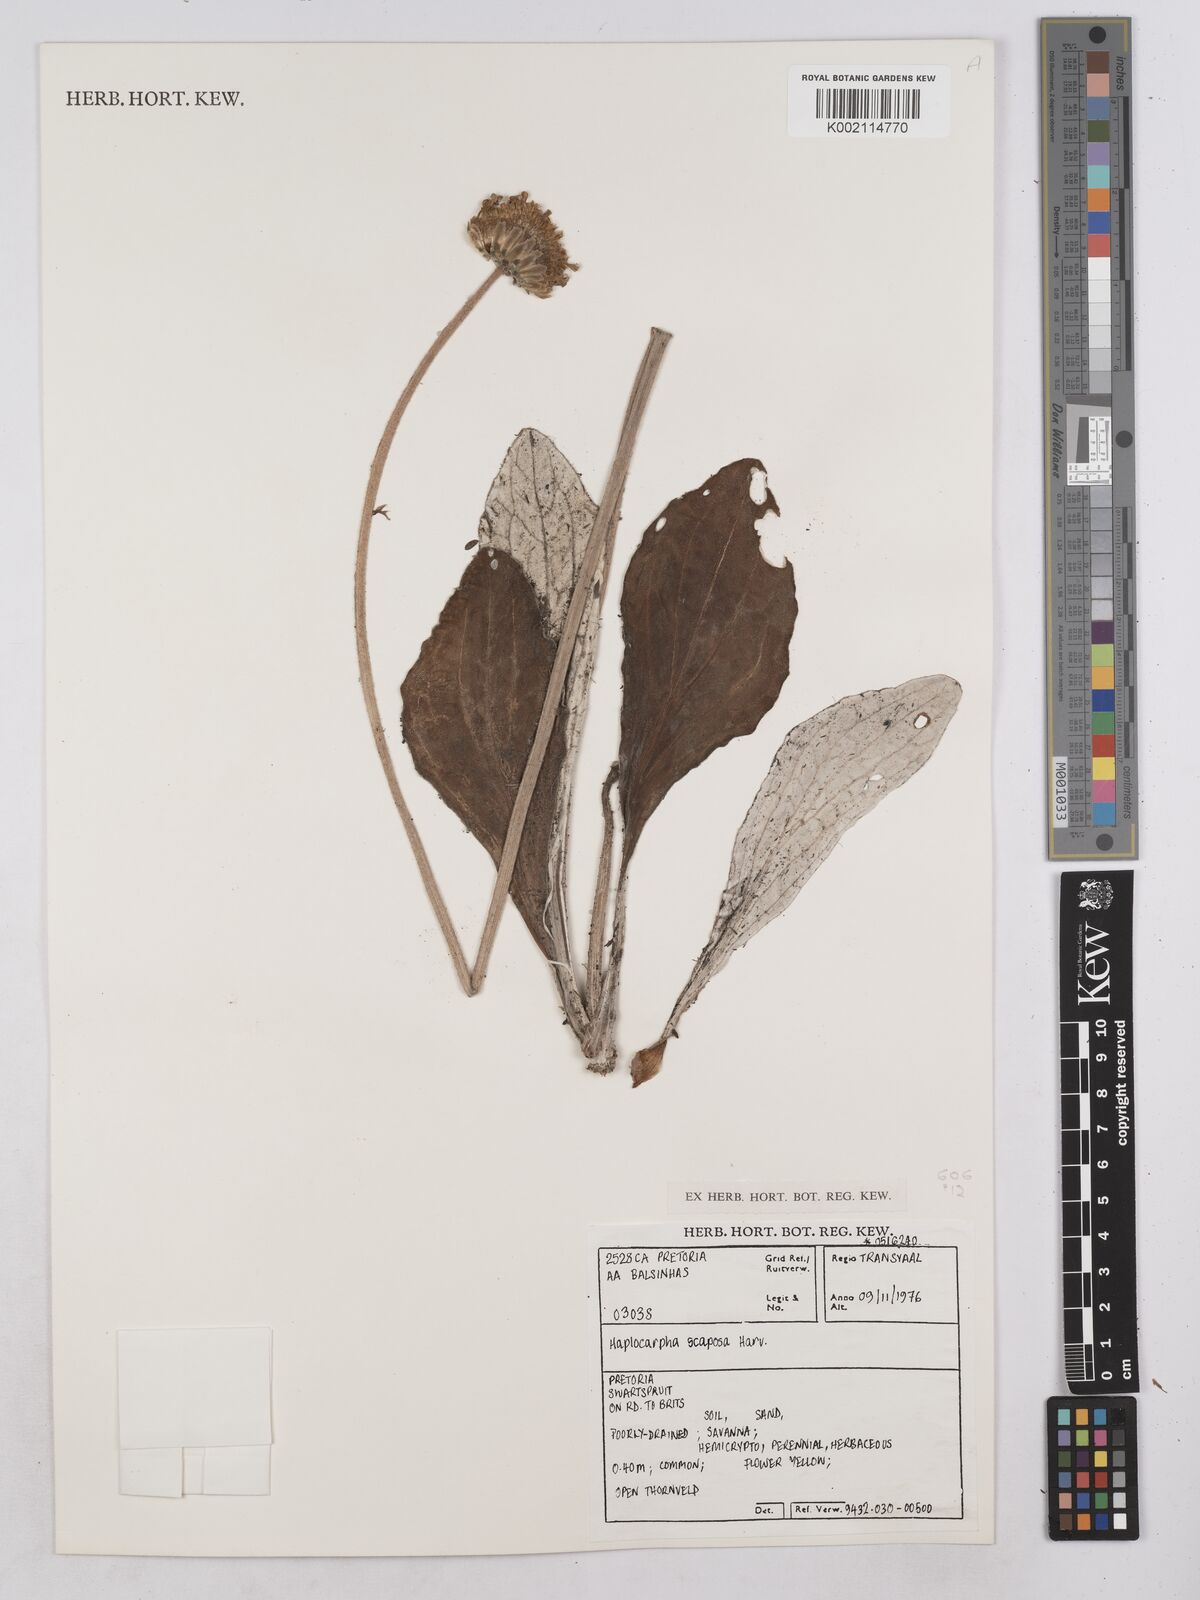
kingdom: Plantae
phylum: Tracheophyta
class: Magnoliopsida
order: Asterales
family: Asteraceae
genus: Haplocarpha
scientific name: Haplocarpha scaposa
